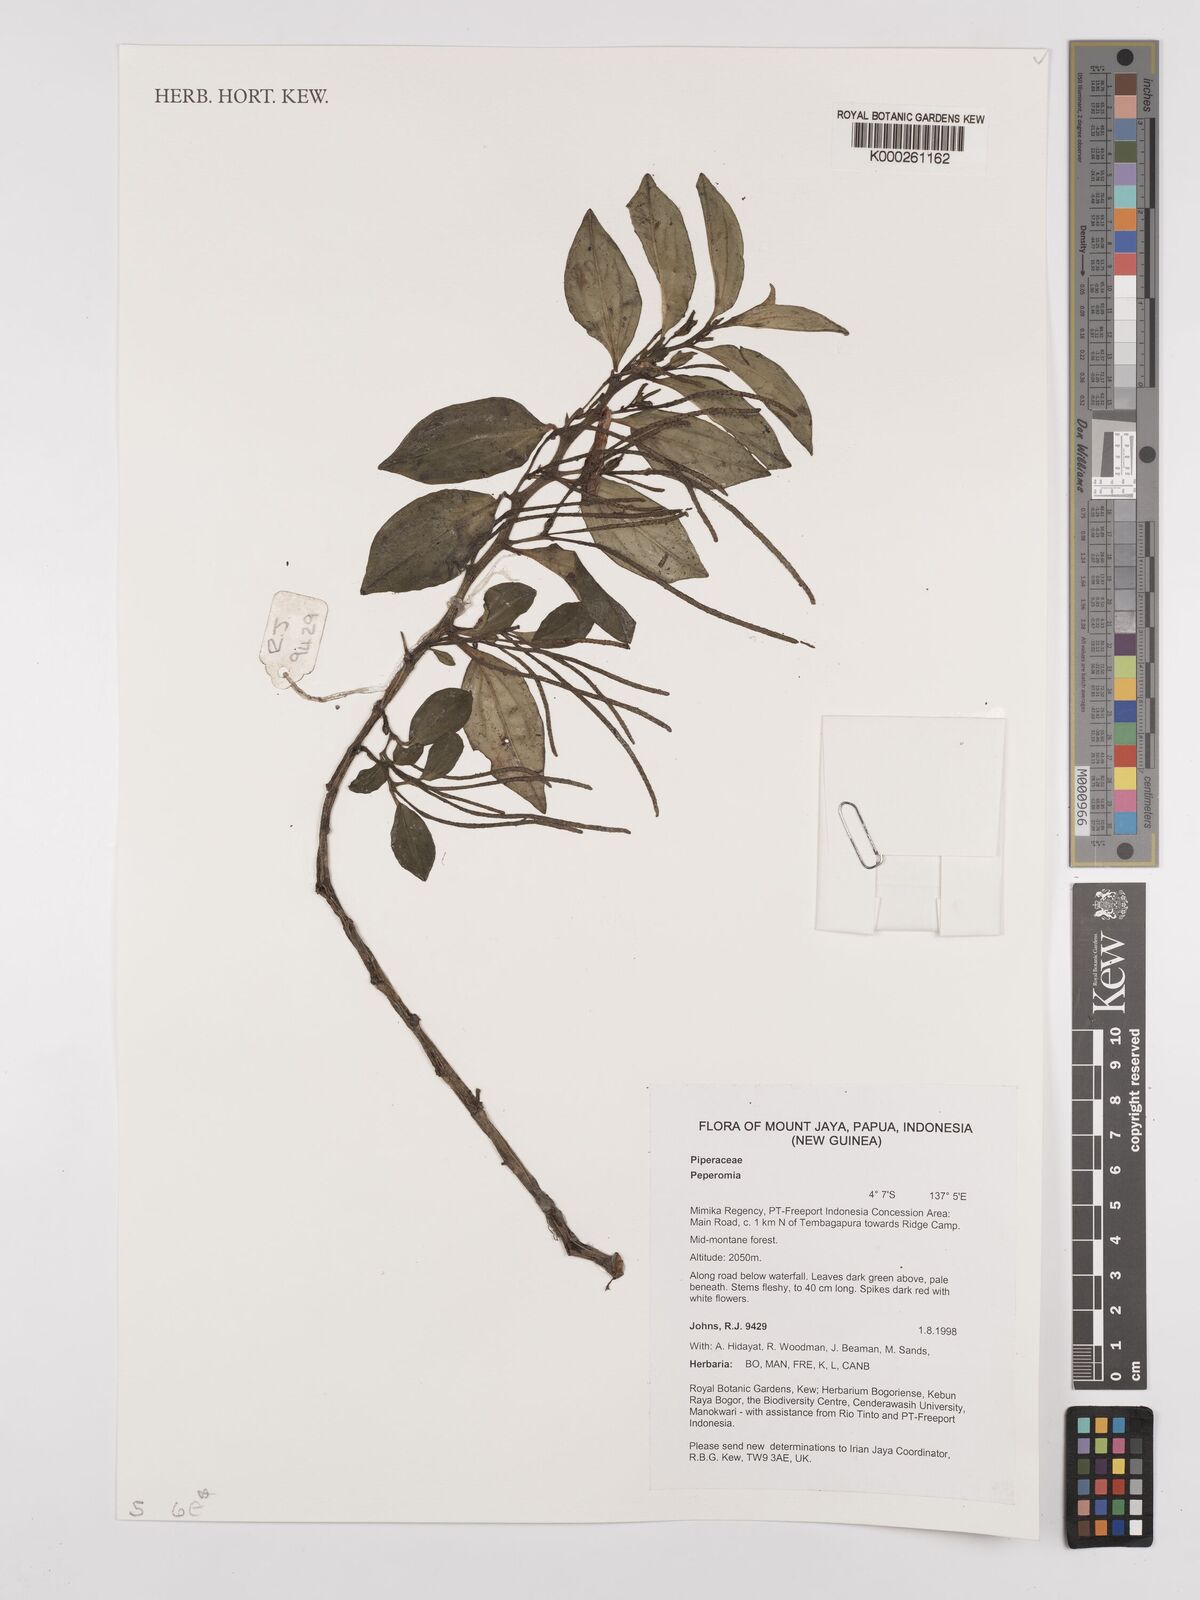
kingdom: Plantae
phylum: Tracheophyta
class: Magnoliopsida
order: Piperales
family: Piperaceae
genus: Peperomia
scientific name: Peperomia
